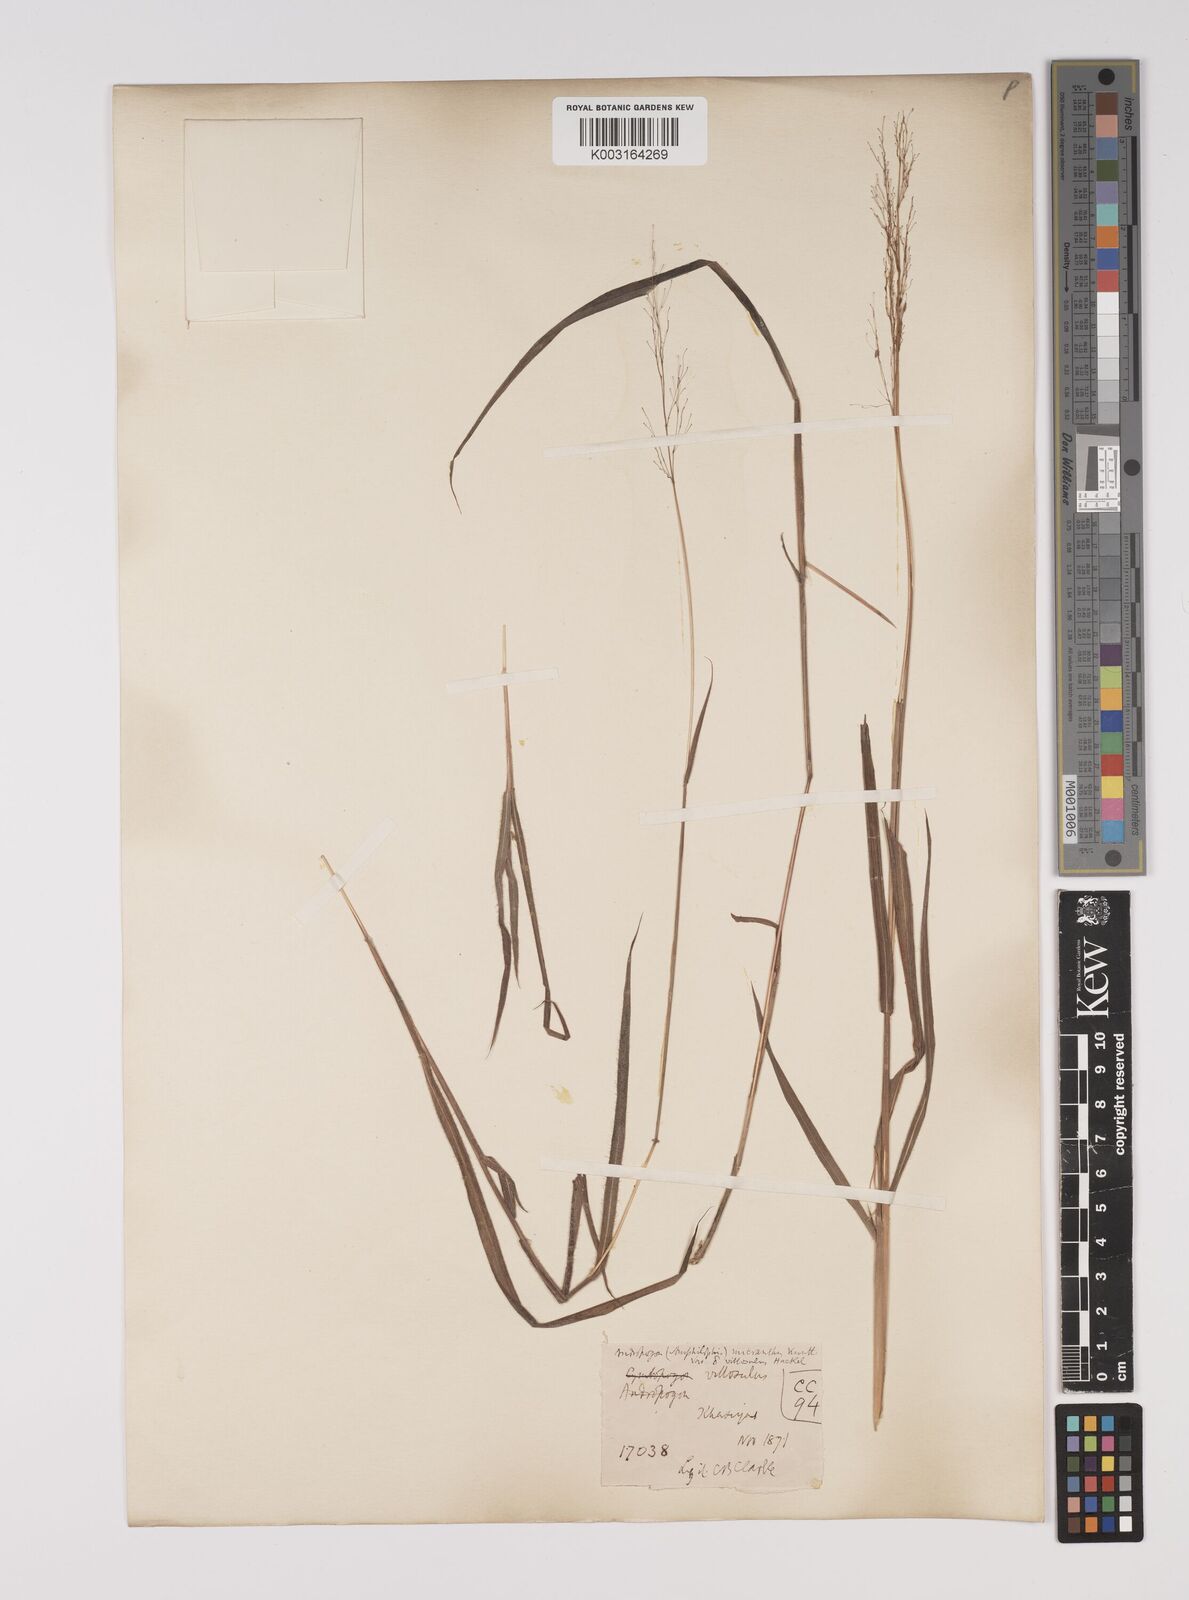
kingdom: Plantae
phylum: Tracheophyta
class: Liliopsida
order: Poales
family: Poaceae
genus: Capillipedium
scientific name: Capillipedium parviflorum
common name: Golden-beard
